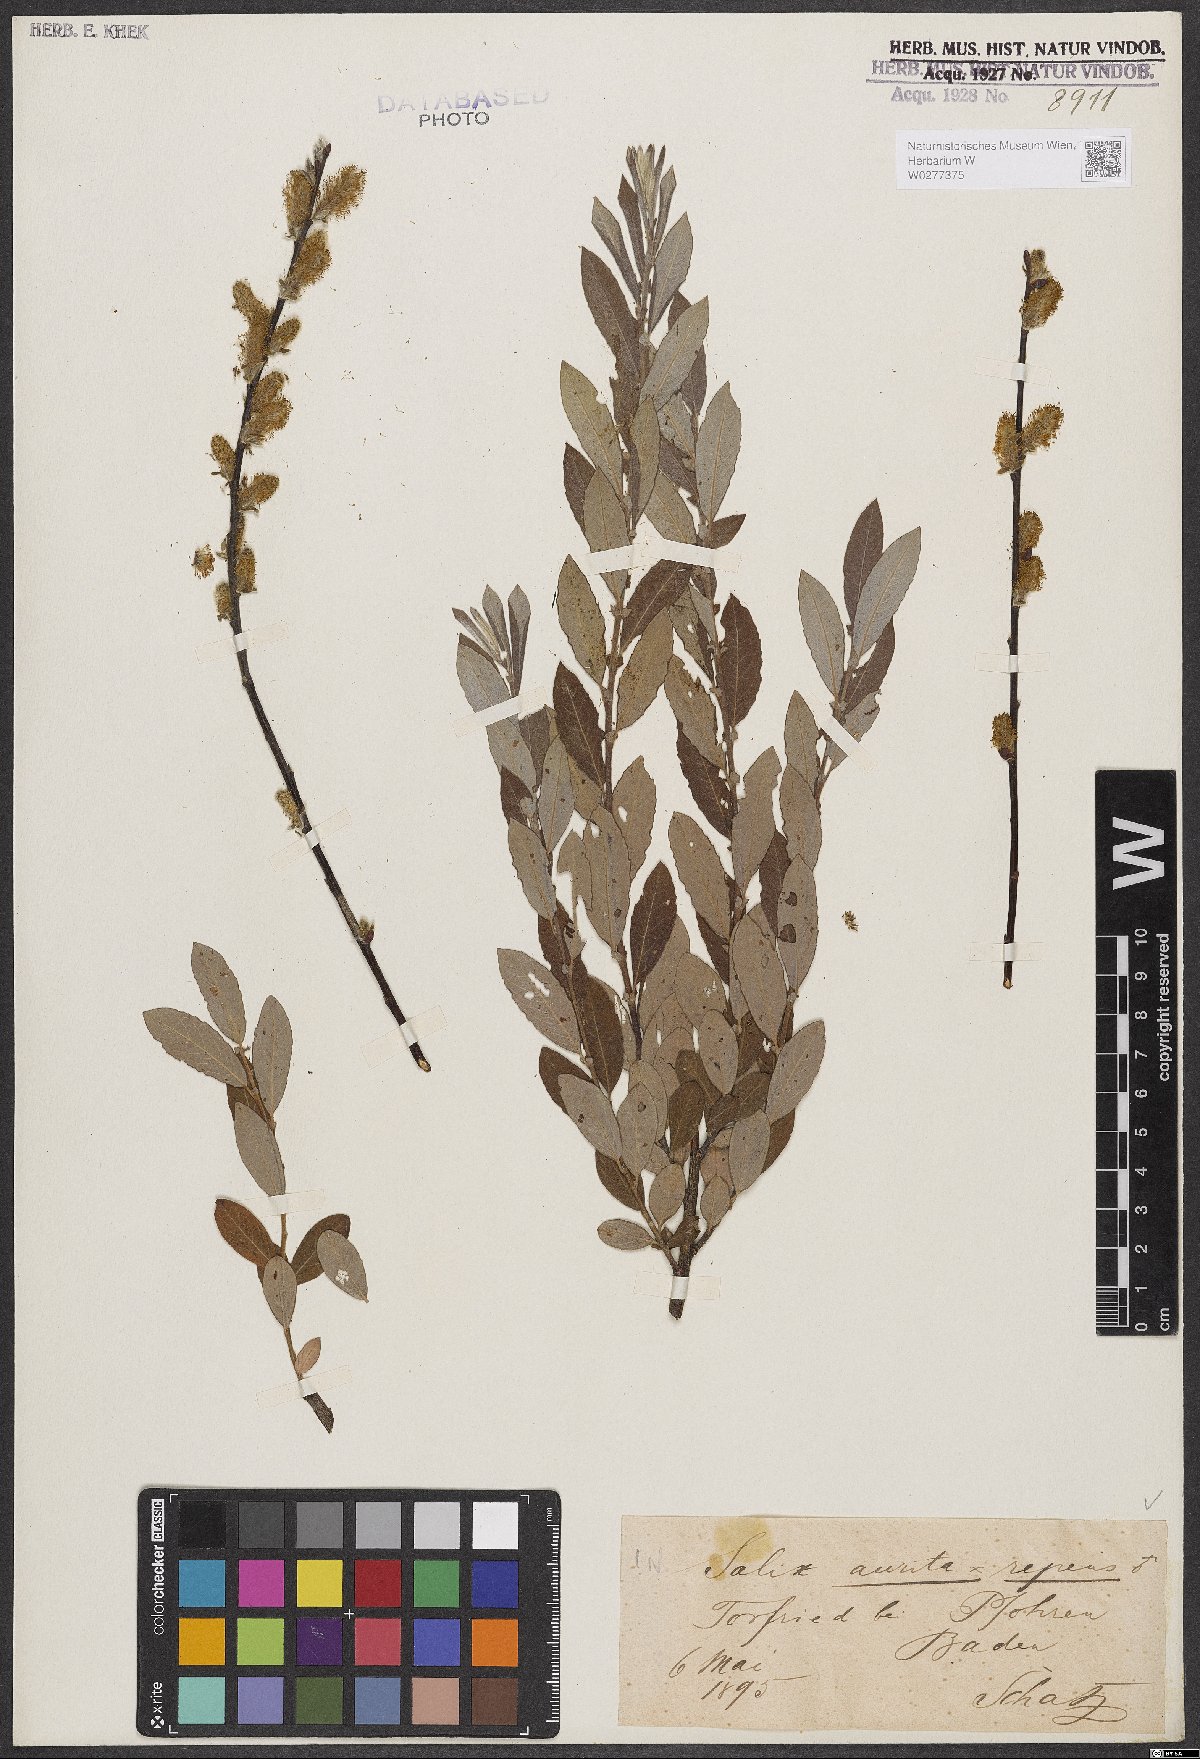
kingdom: Plantae
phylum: Tracheophyta
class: Magnoliopsida
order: Malpighiales
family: Salicaceae
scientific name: Salicaceae
